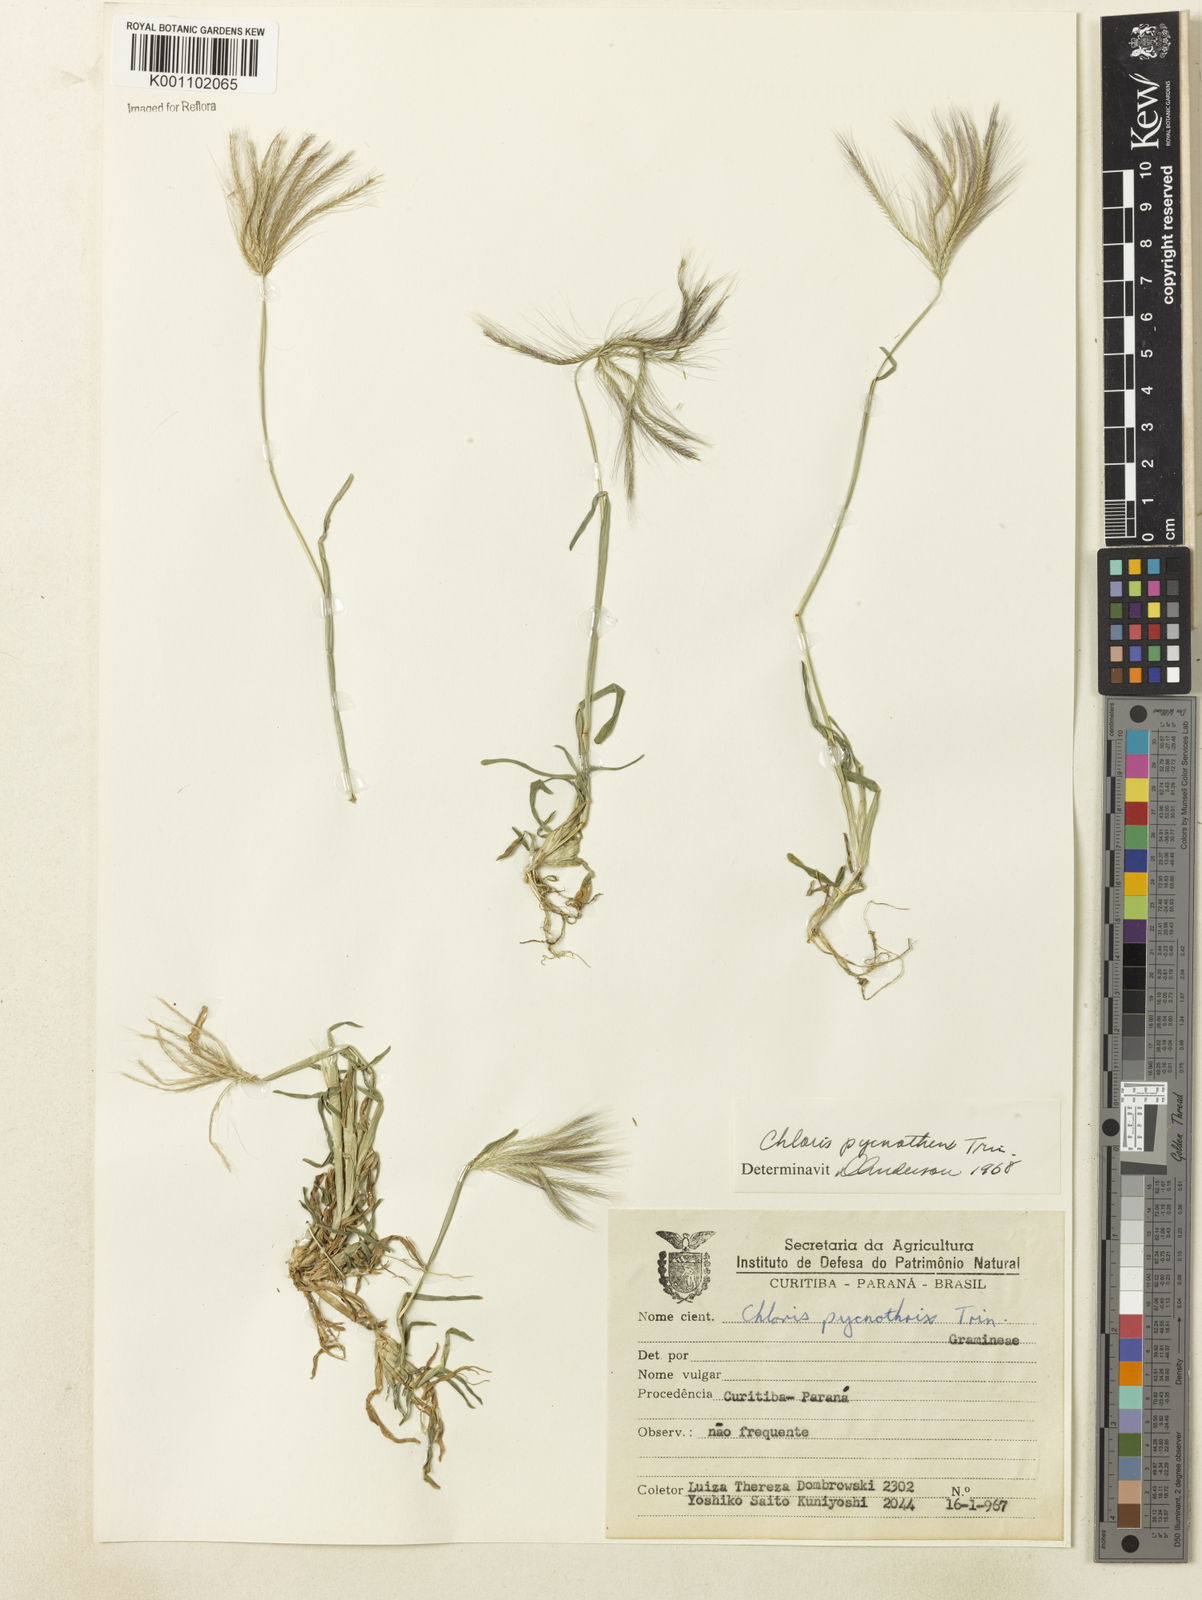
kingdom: Plantae
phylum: Tracheophyta
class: Liliopsida
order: Poales
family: Poaceae
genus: Chloris
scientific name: Chloris pycnothrix
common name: Spiderweb chloris
